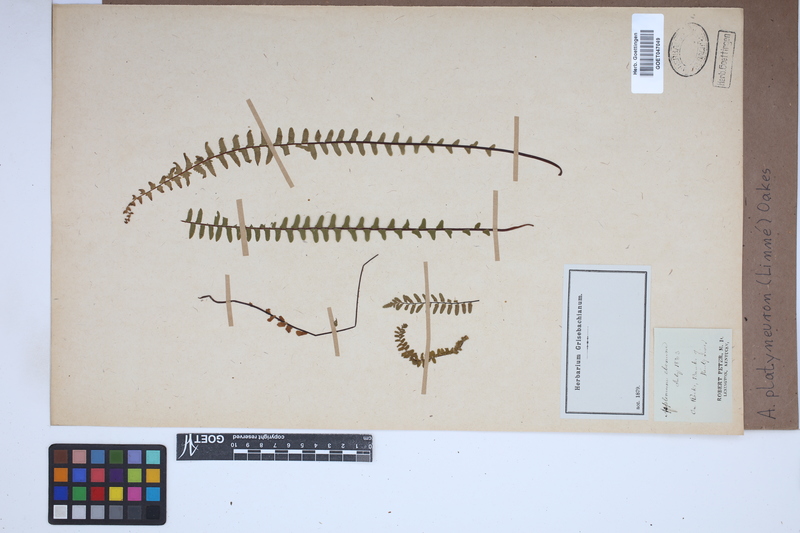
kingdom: Plantae
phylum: Tracheophyta
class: Polypodiopsida
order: Polypodiales
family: Aspleniaceae
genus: Asplenium
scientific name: Asplenium platyneuron
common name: Ebony spleenwort
